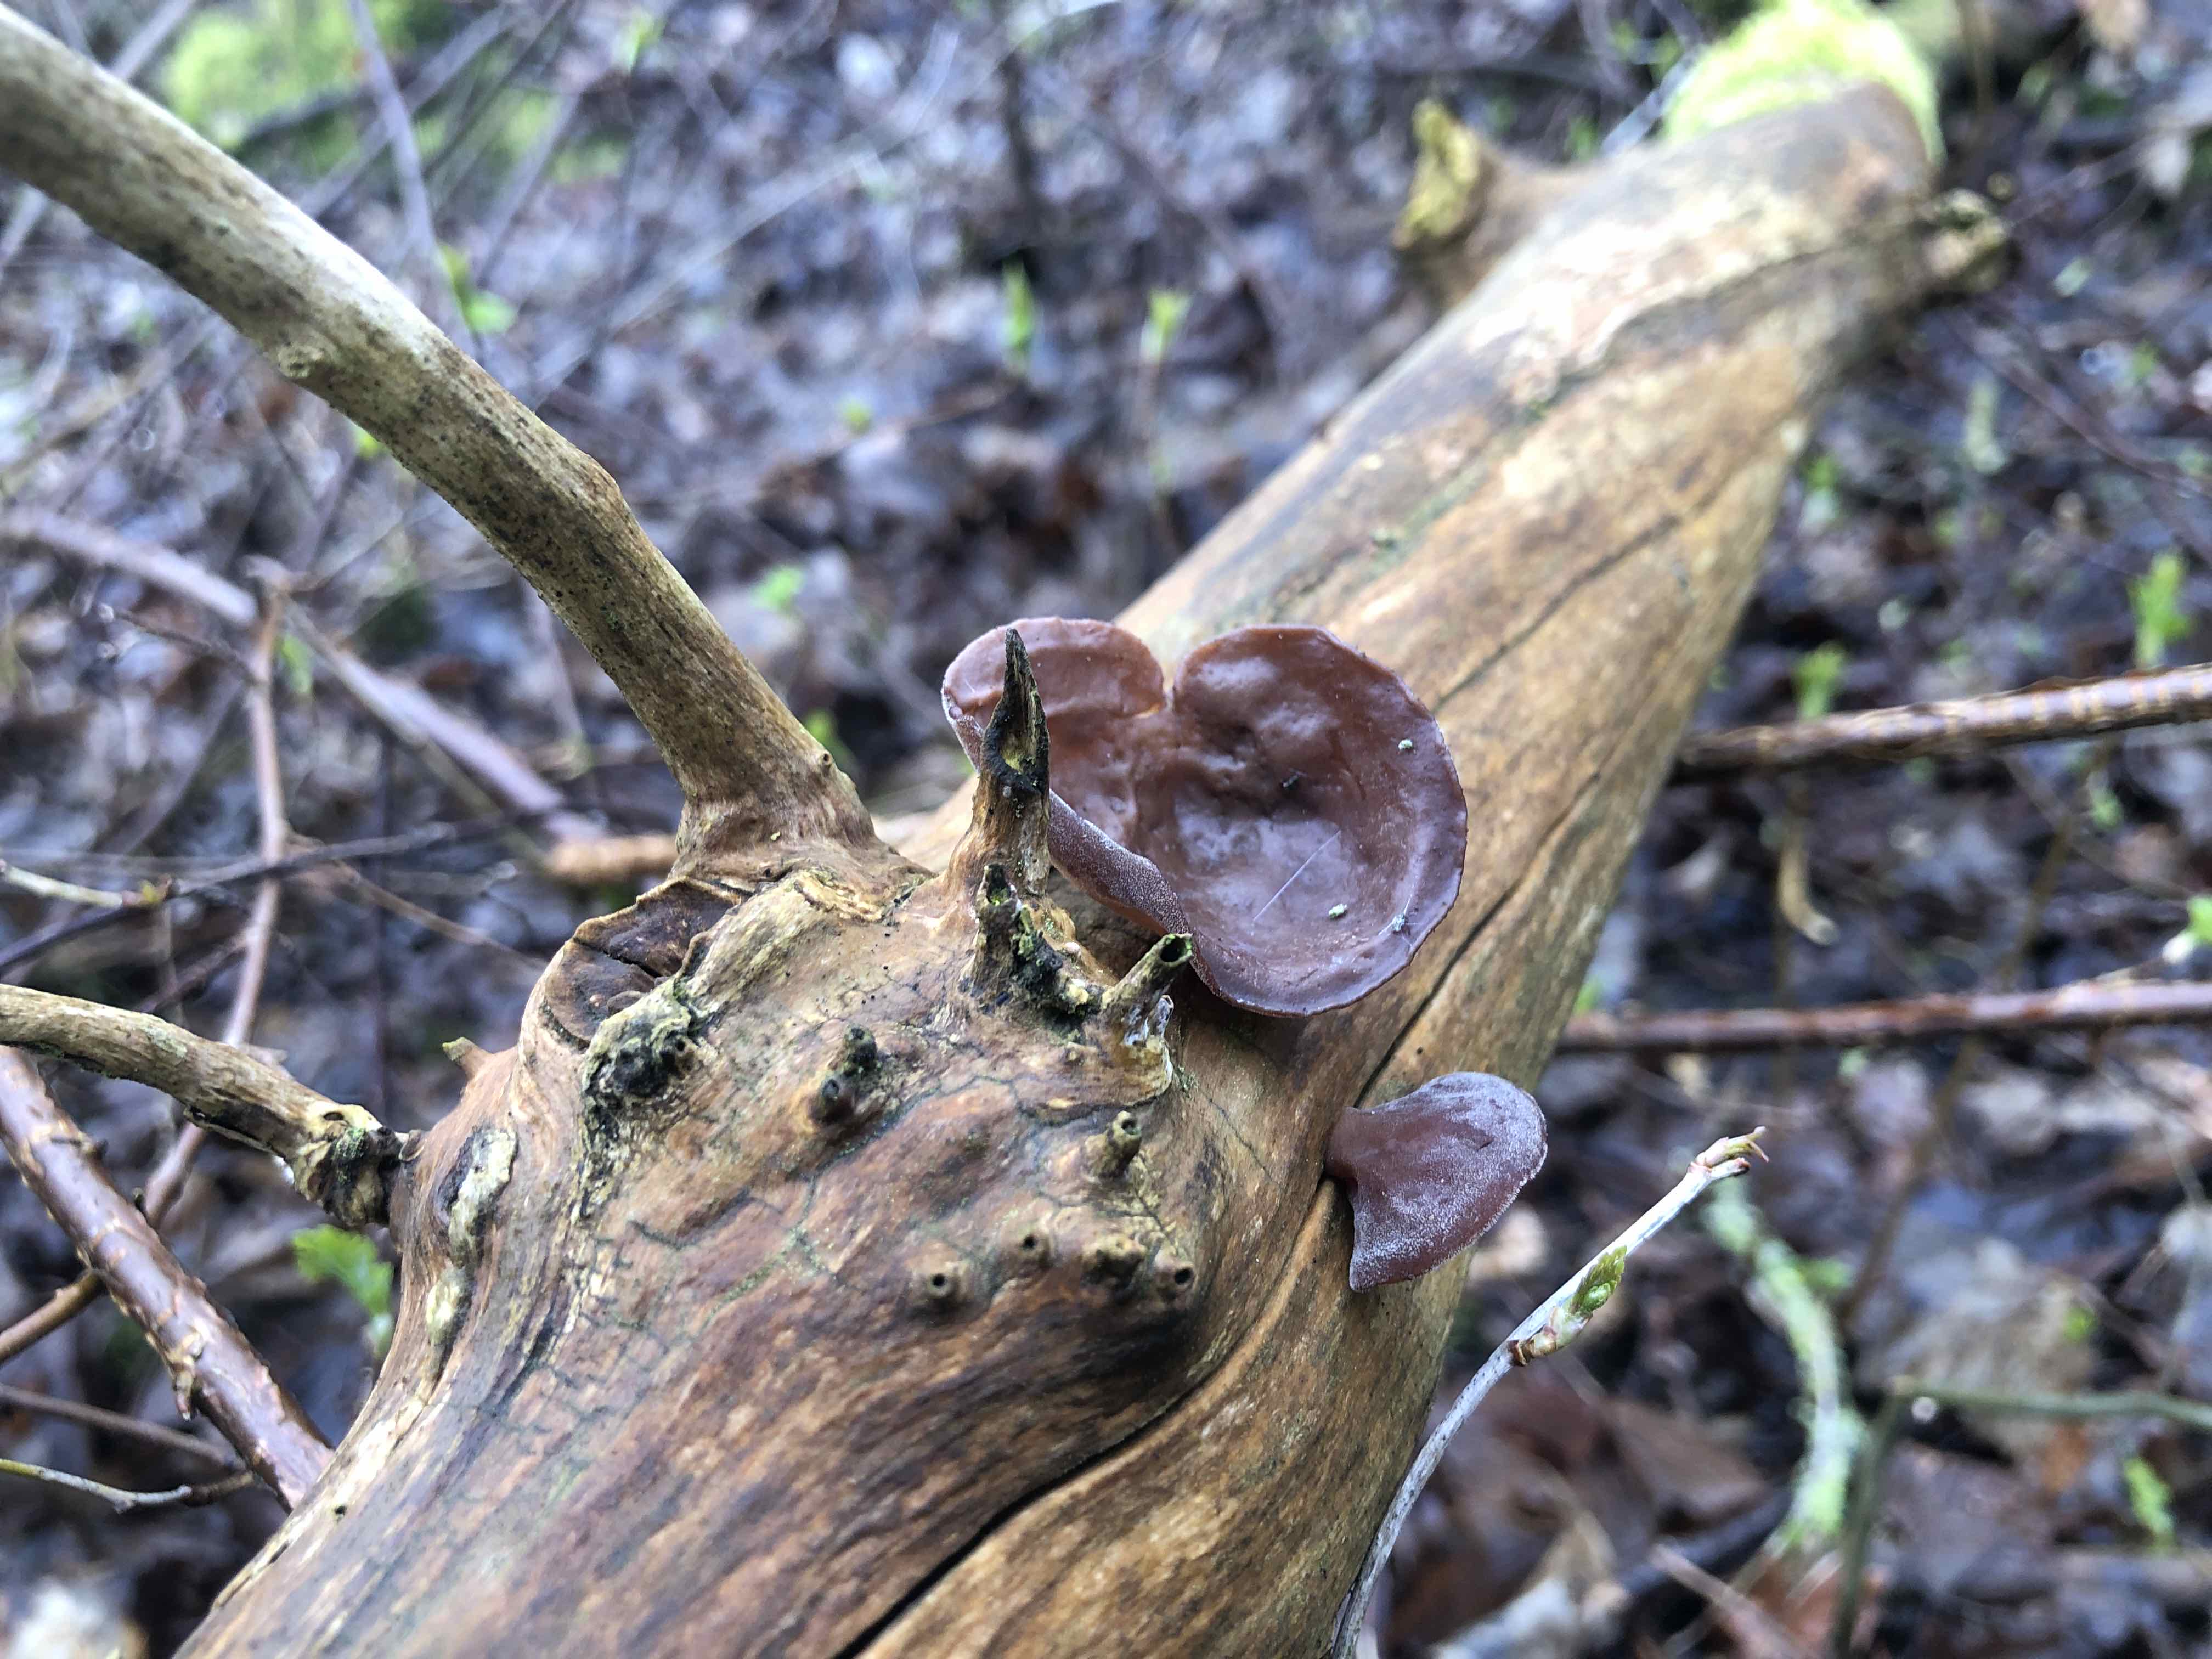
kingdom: Fungi
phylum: Basidiomycota
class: Agaricomycetes
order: Auriculariales
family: Auriculariaceae
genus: Auricularia
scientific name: Auricularia auricula-judae
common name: almindelig judasøre
